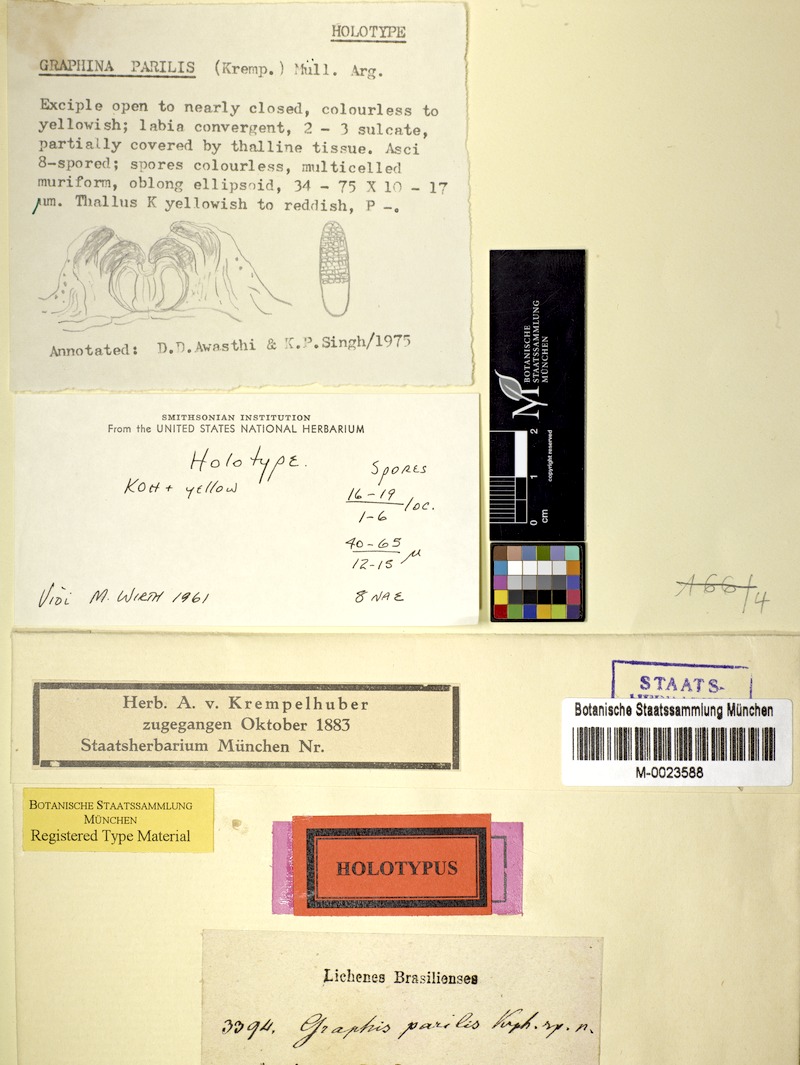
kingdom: Fungi
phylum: Ascomycota
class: Lecanoromycetes
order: Ostropales
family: Graphidaceae
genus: Graphis
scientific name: Graphis parilis
